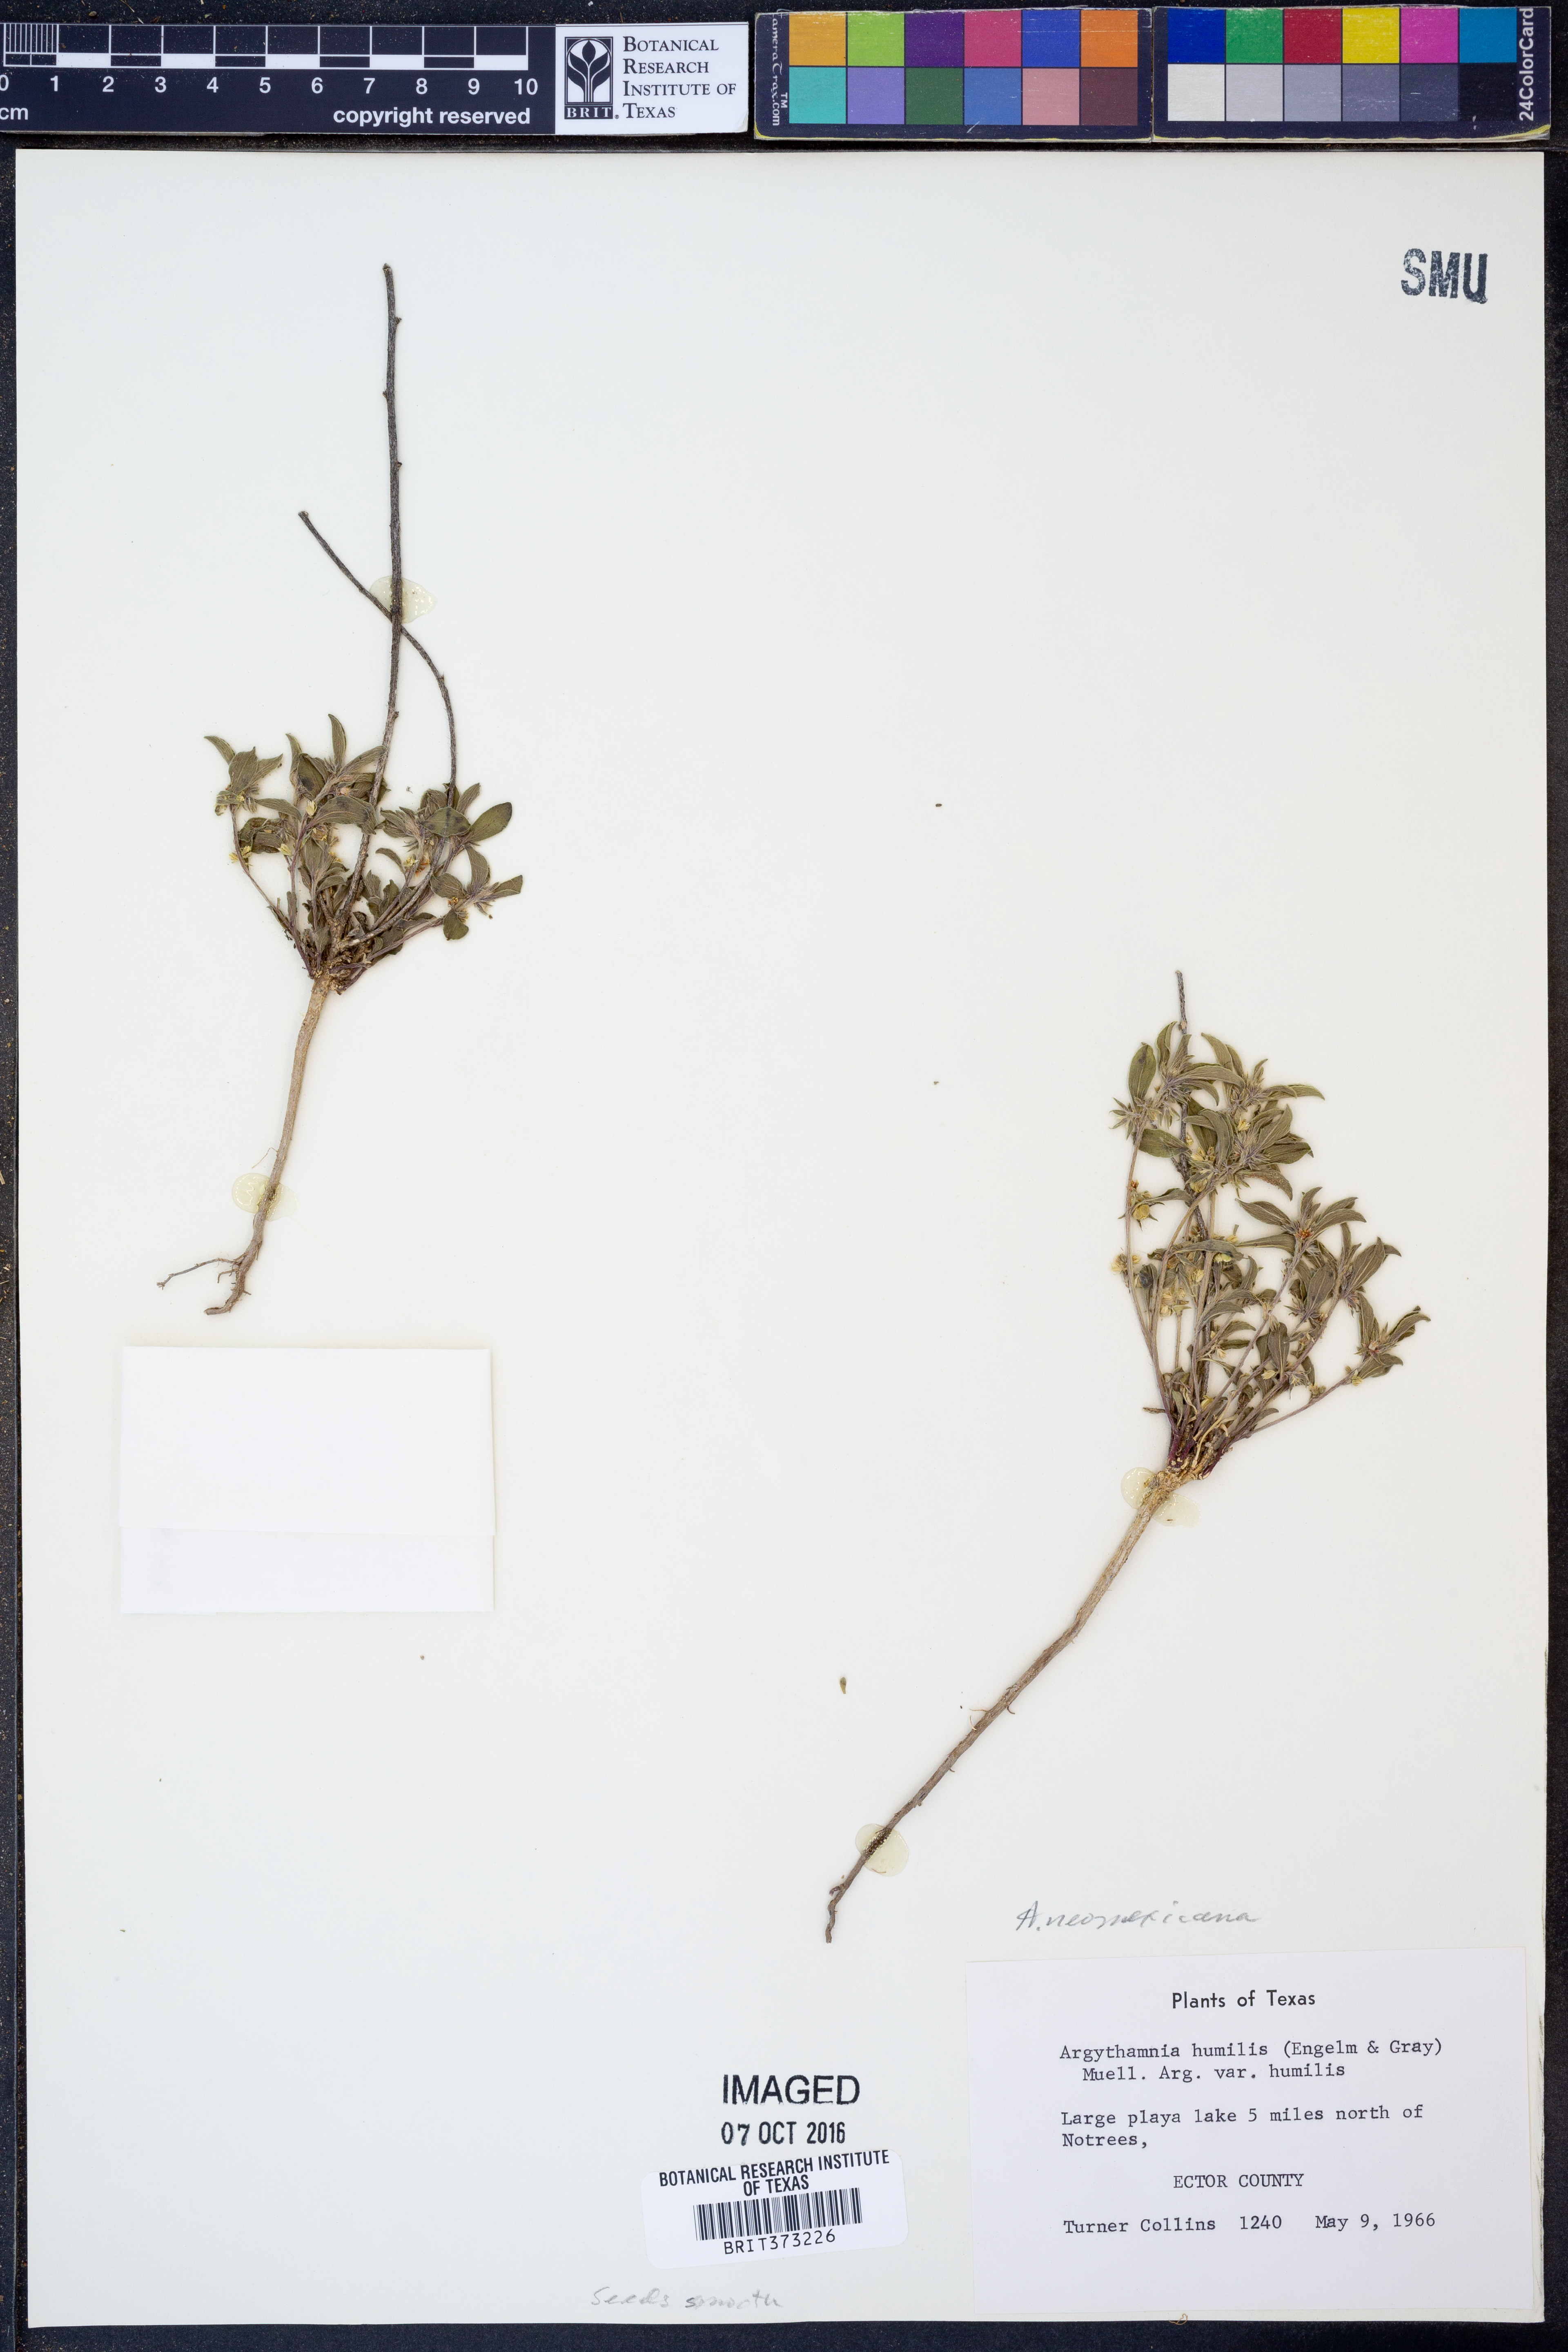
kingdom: Plantae
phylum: Tracheophyta
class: Magnoliopsida
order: Malpighiales
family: Euphorbiaceae
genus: Ditaxis
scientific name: Ditaxis serrata
